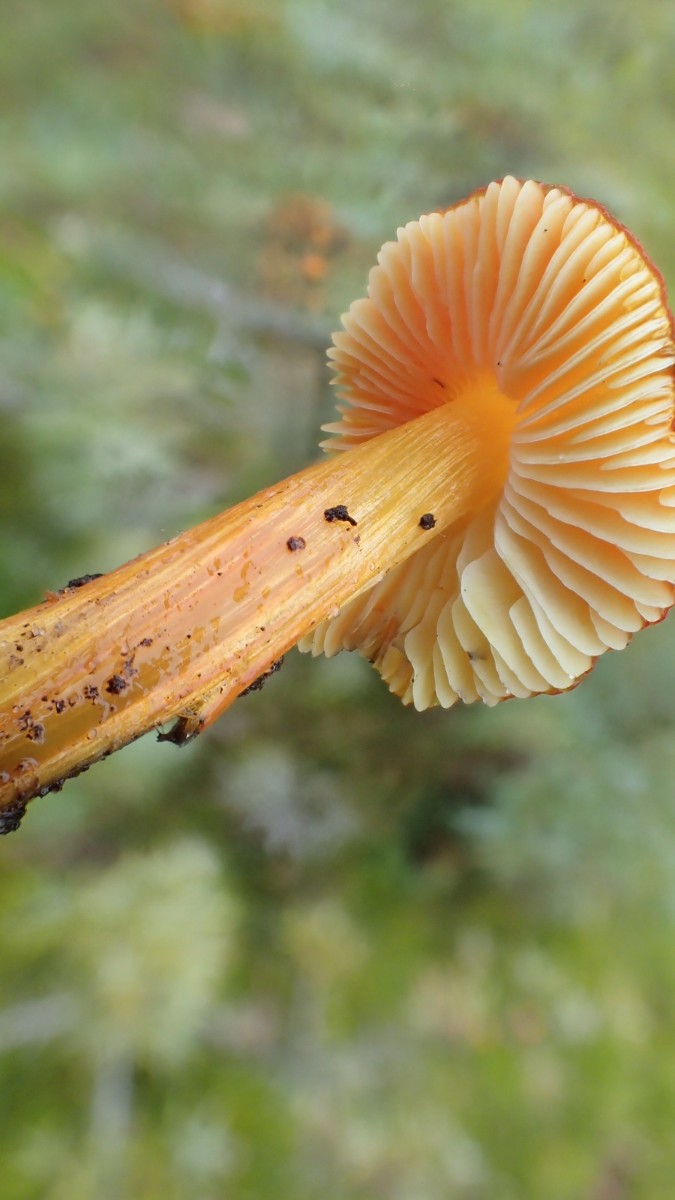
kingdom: Fungi
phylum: Basidiomycota
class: Agaricomycetes
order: Agaricales
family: Hygrophoraceae
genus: Hygrocybe
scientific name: Hygrocybe conica
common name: kegle-vokshat
